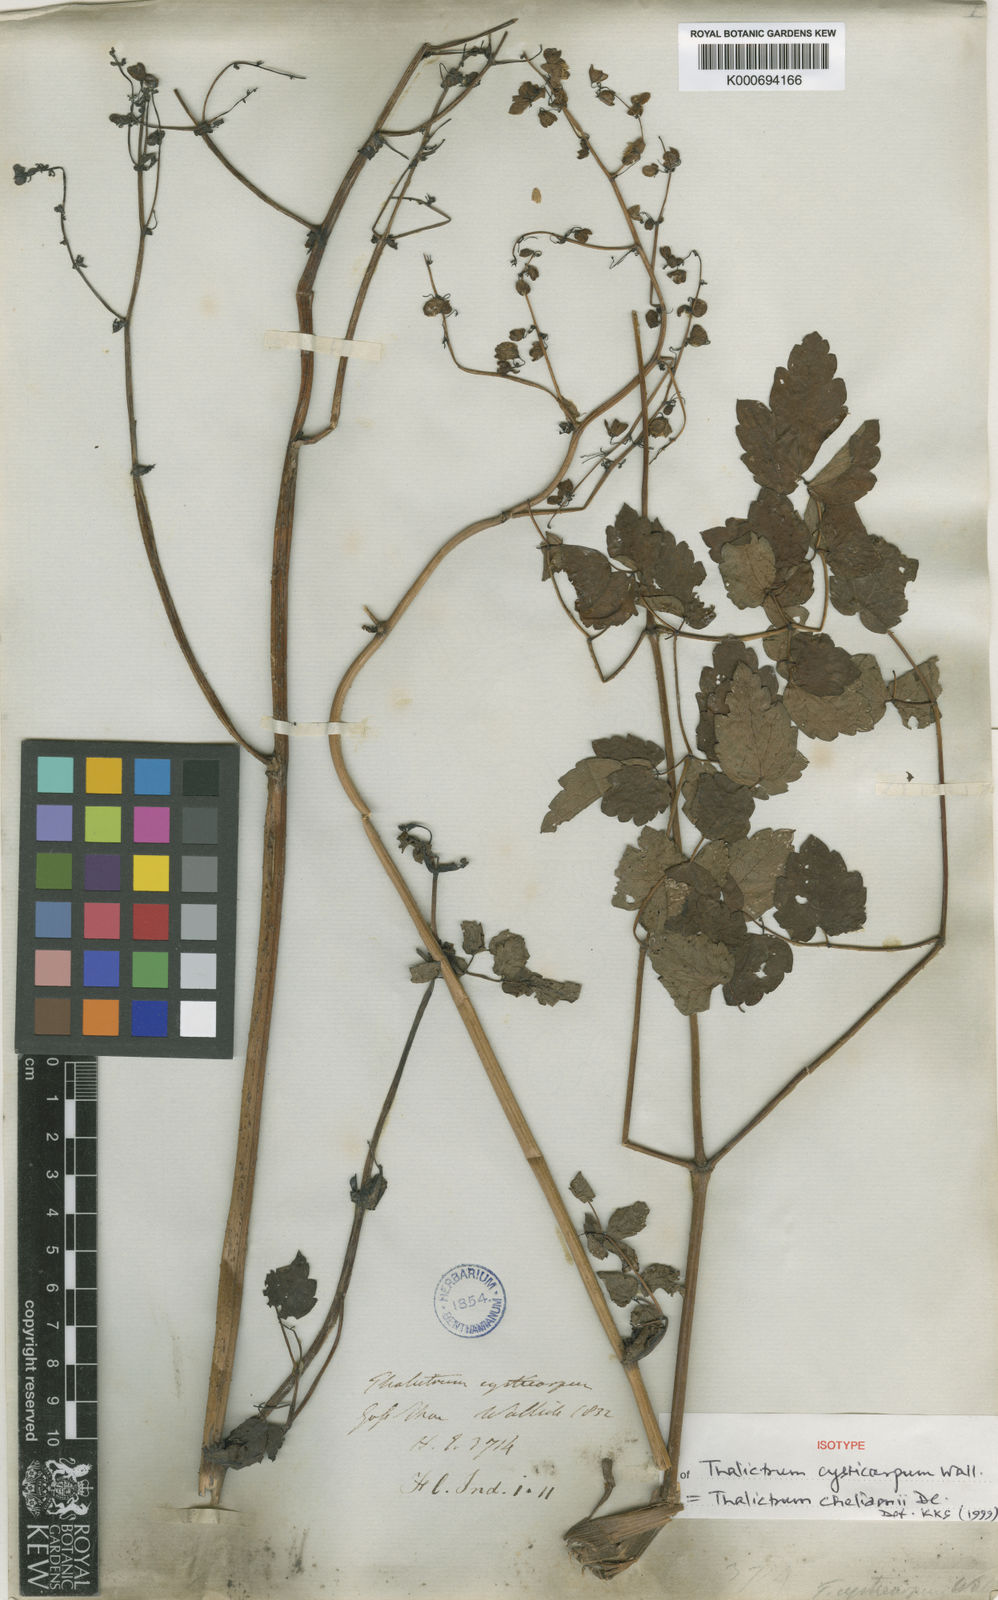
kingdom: Plantae
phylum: Tracheophyta
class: Magnoliopsida
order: Ranunculales
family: Ranunculaceae
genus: Thalictrum
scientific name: Thalictrum
